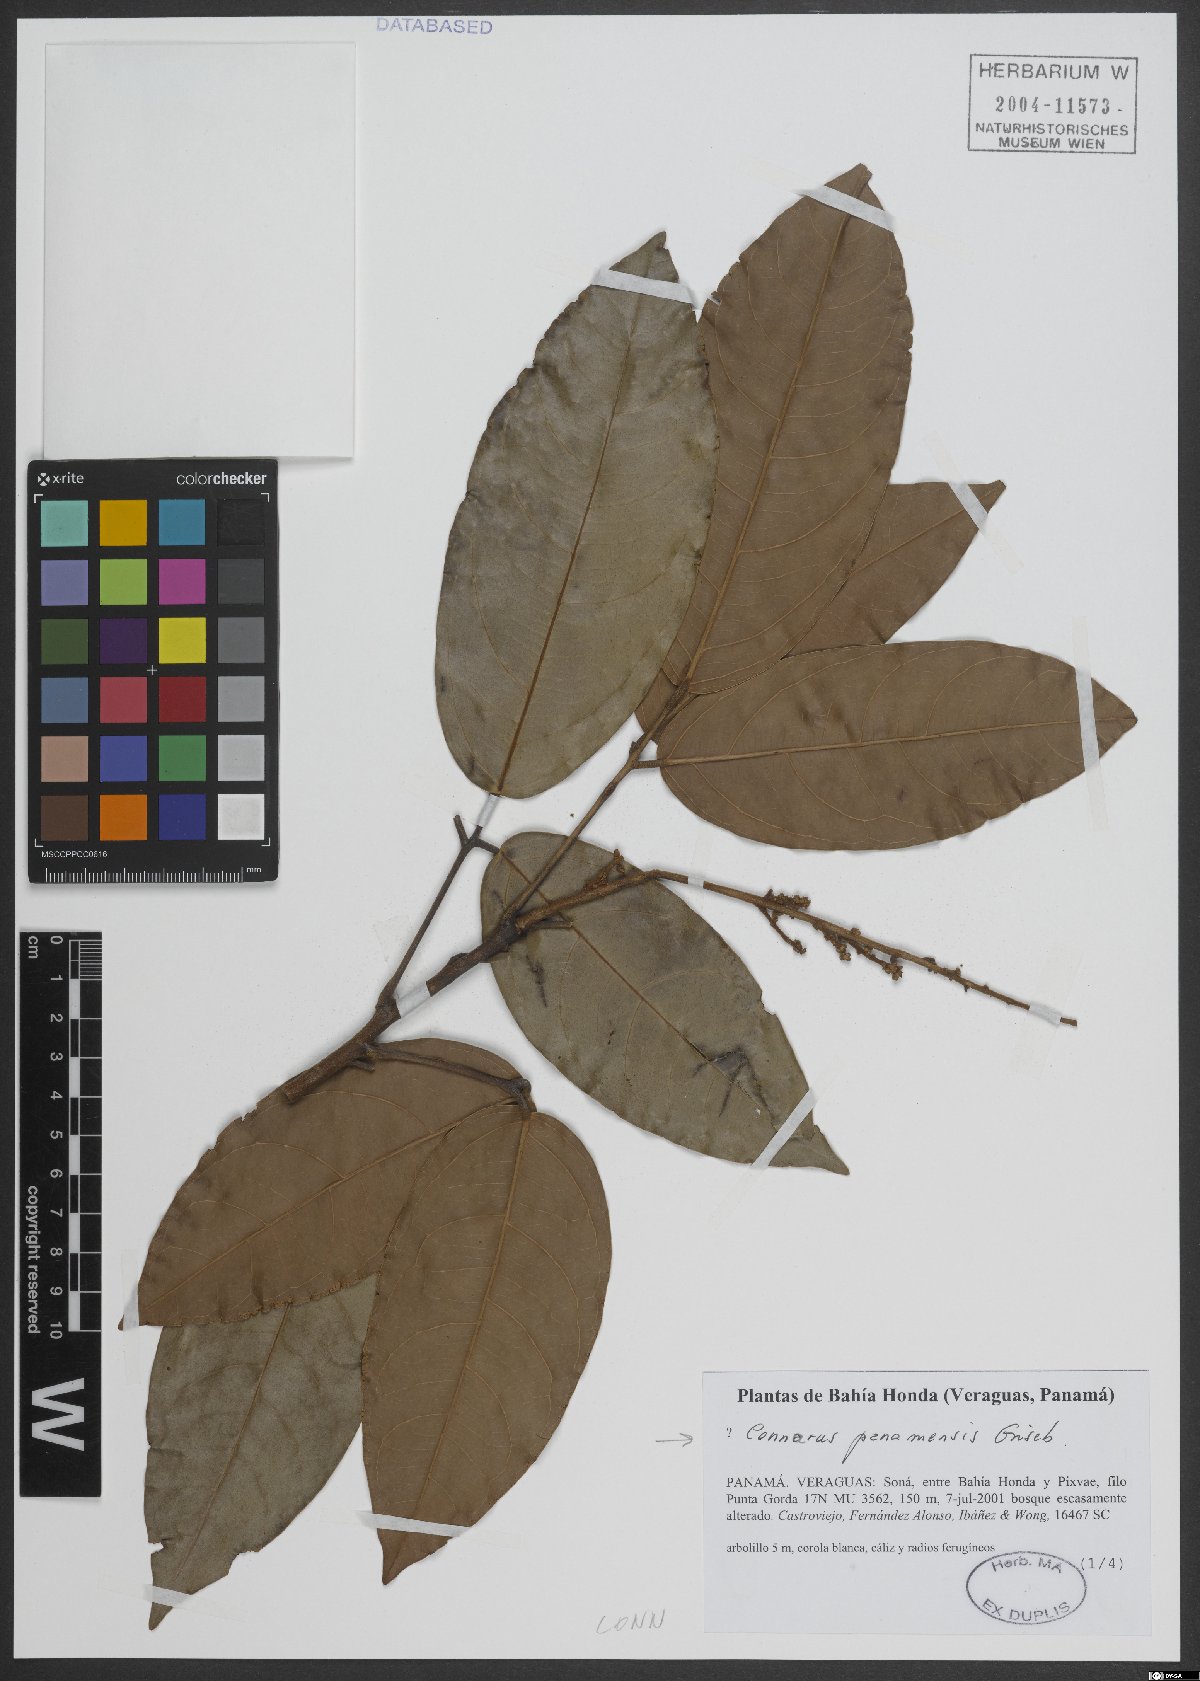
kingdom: Plantae
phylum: Tracheophyta
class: Magnoliopsida
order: Oxalidales
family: Connaraceae
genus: Connarus
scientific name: Connarus panamensis
